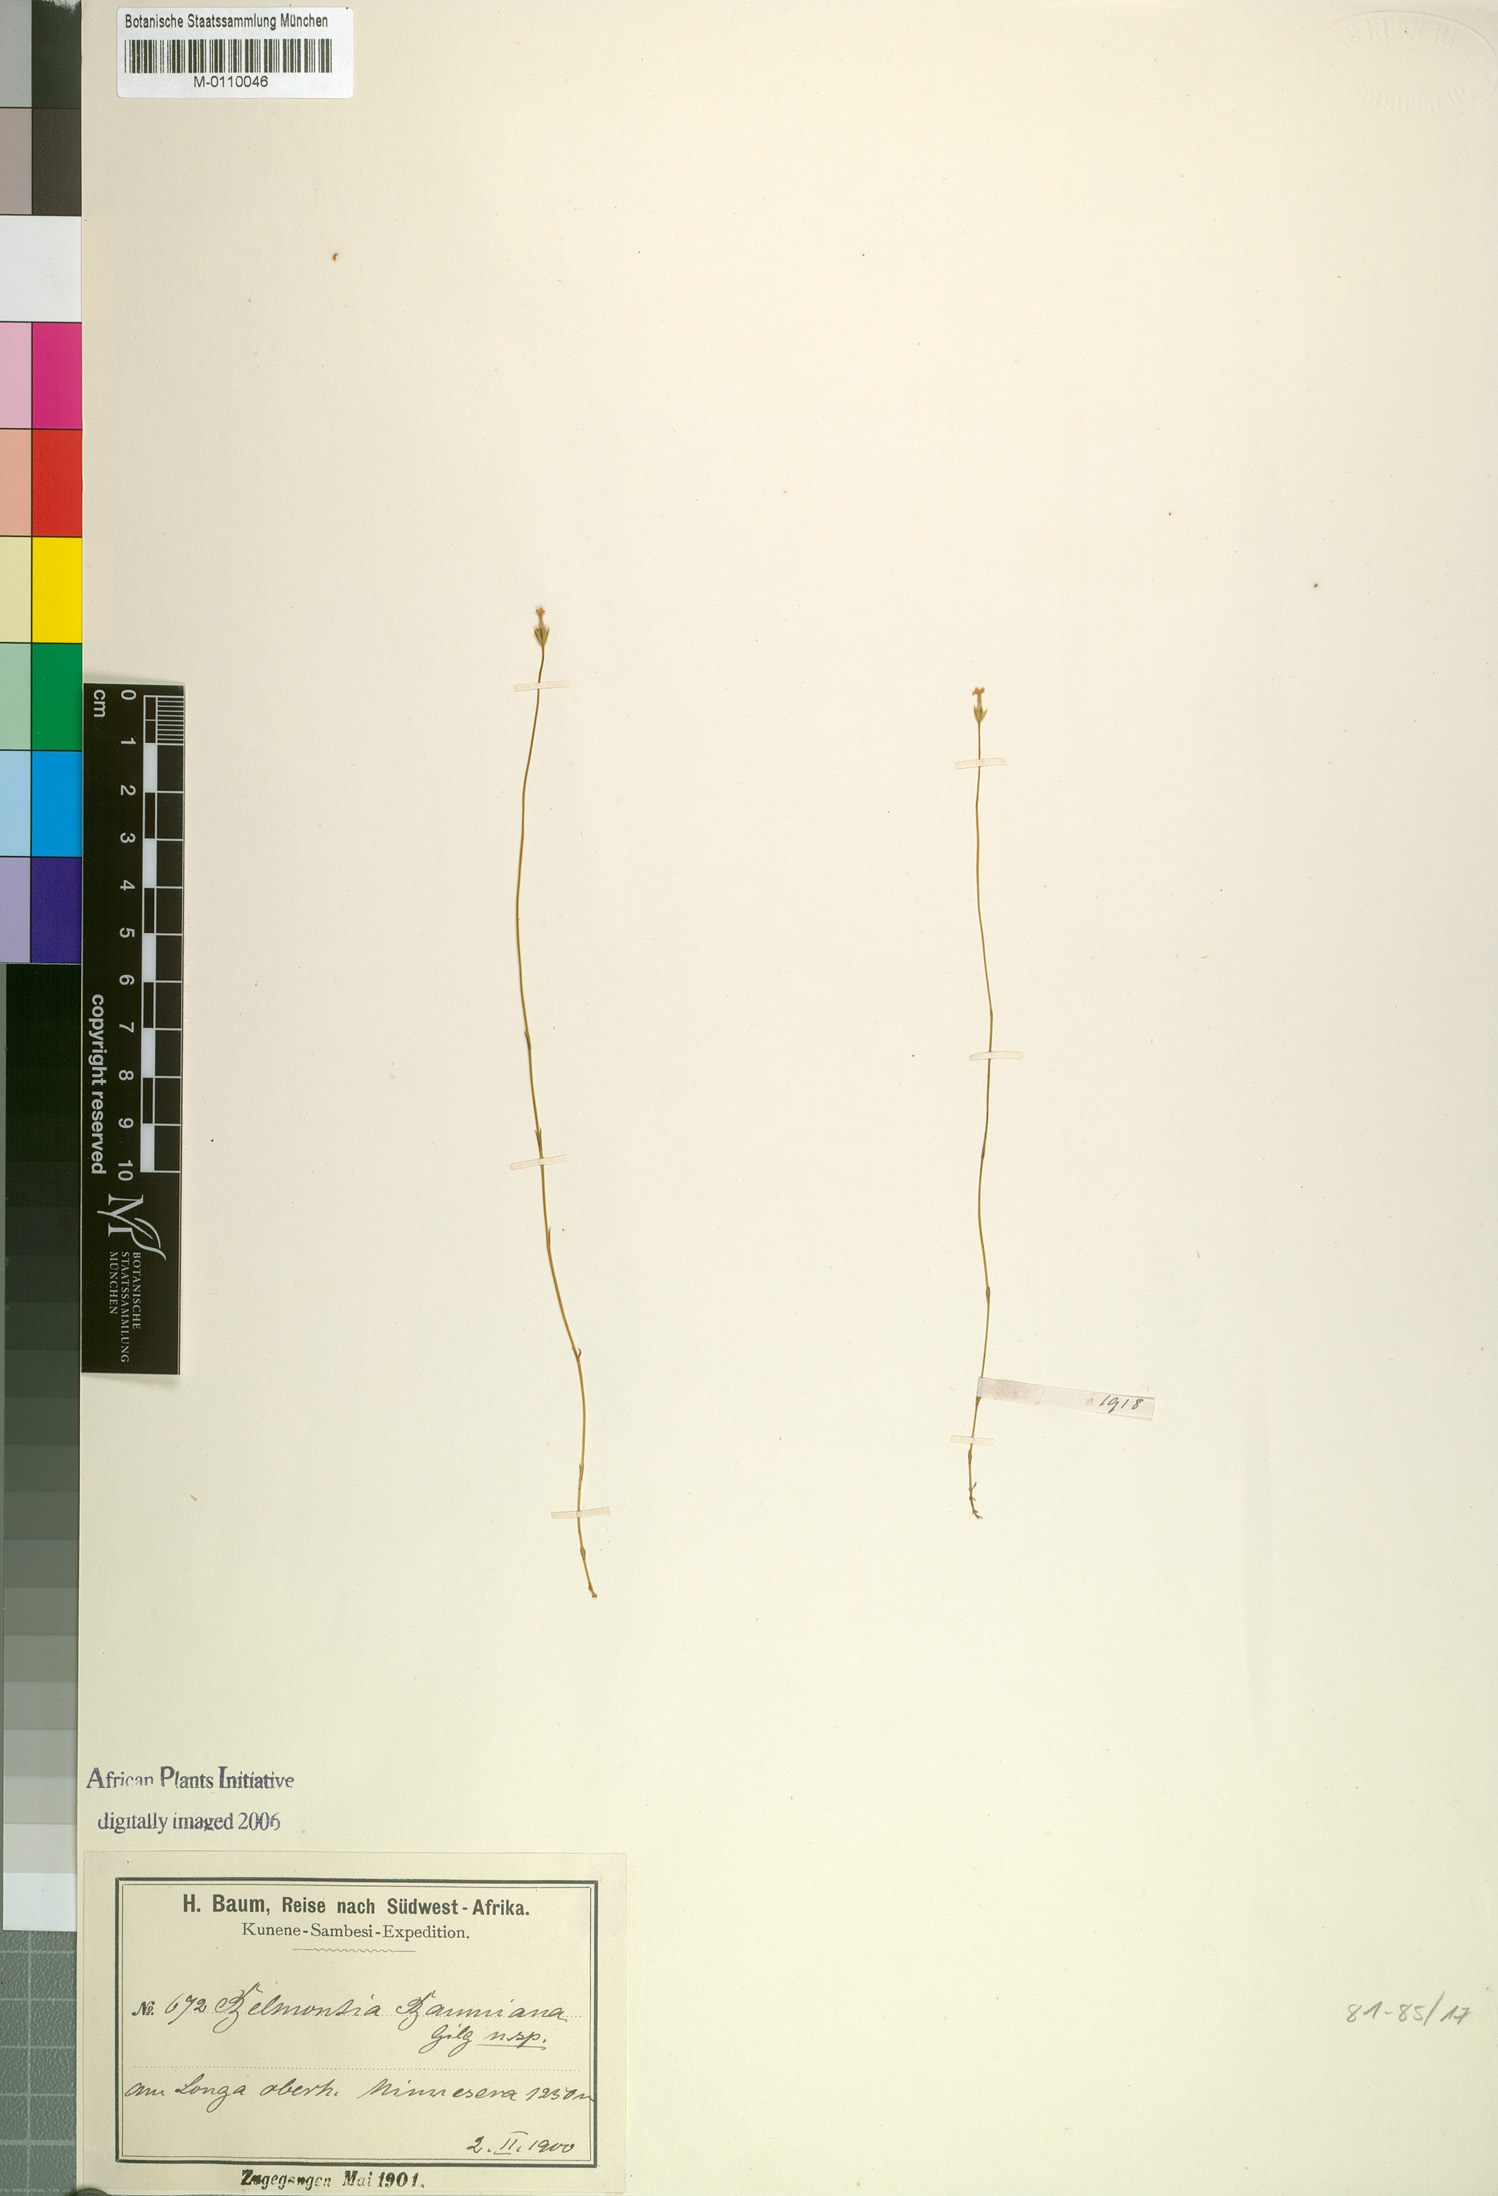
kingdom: Plantae
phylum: Tracheophyta
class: Magnoliopsida
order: Gentianales
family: Gentianaceae
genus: Exochaenium
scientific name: Exochaenium baumianum
